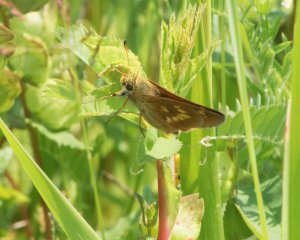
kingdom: Animalia
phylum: Arthropoda
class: Insecta
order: Lepidoptera
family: Hesperiidae
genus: Polites
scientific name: Polites
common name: Long Dash Skipper
